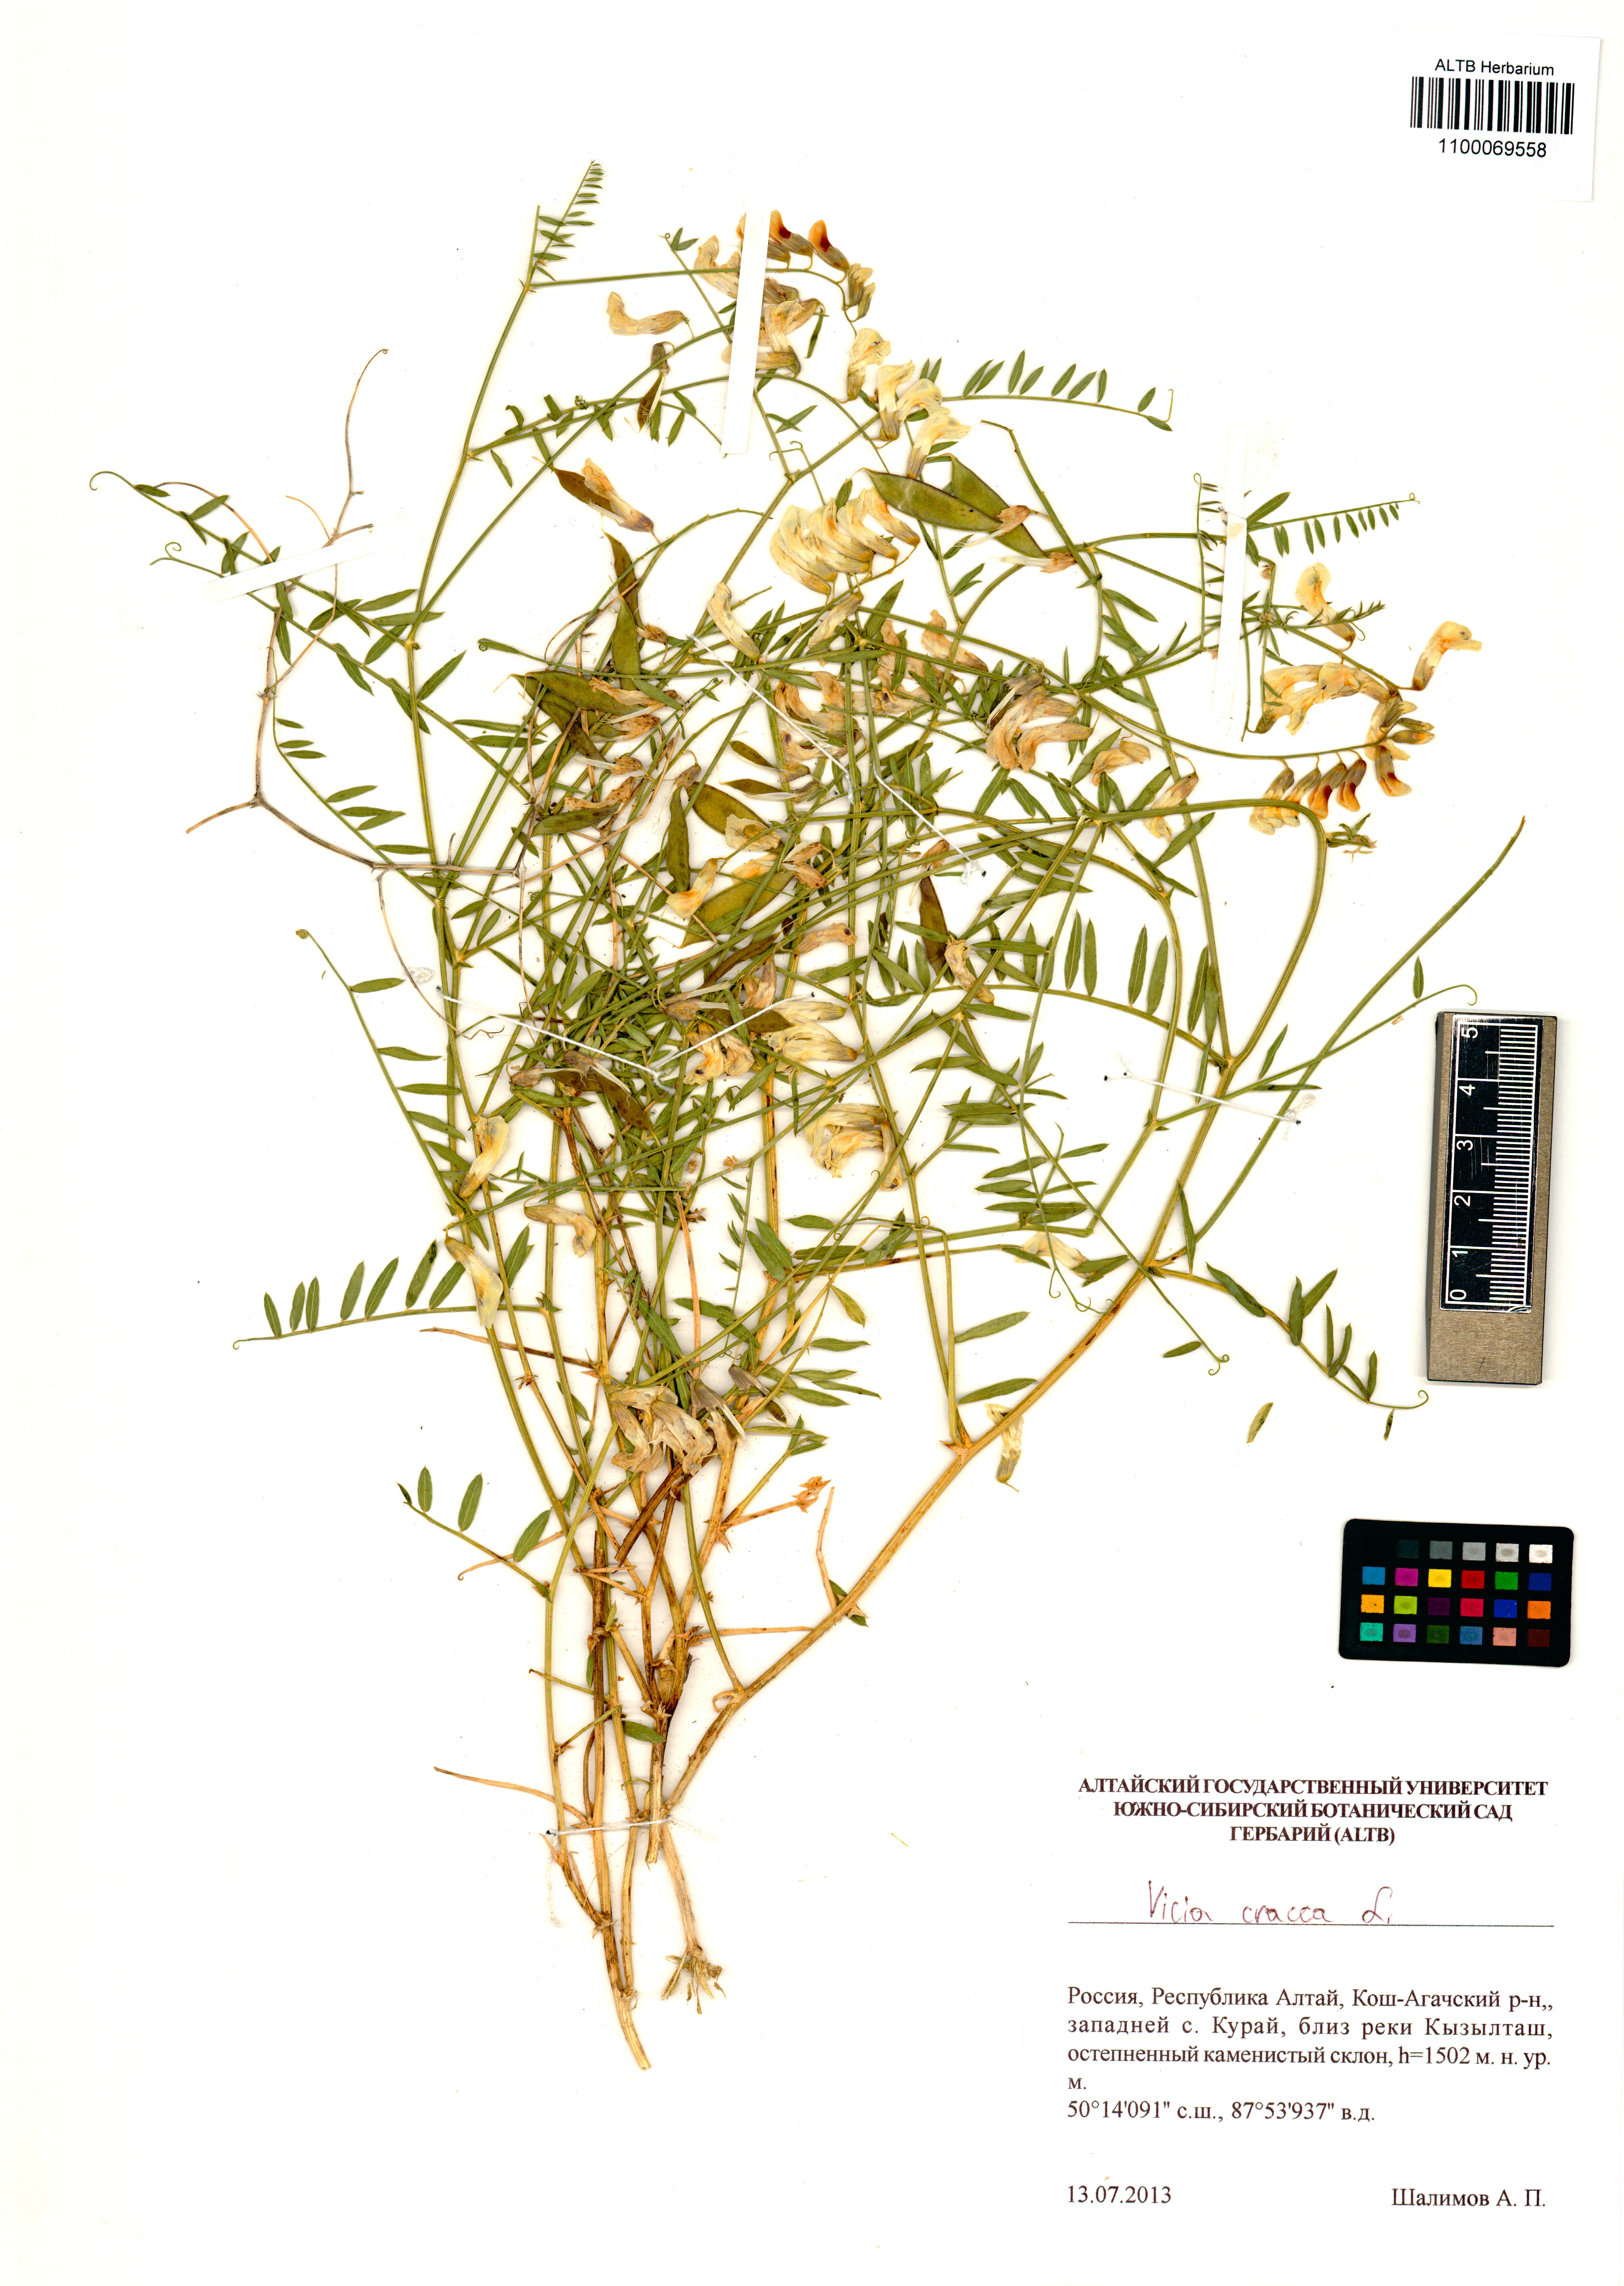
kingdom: Plantae
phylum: Tracheophyta
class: Magnoliopsida
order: Fabales
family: Fabaceae
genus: Vicia
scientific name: Vicia costata
